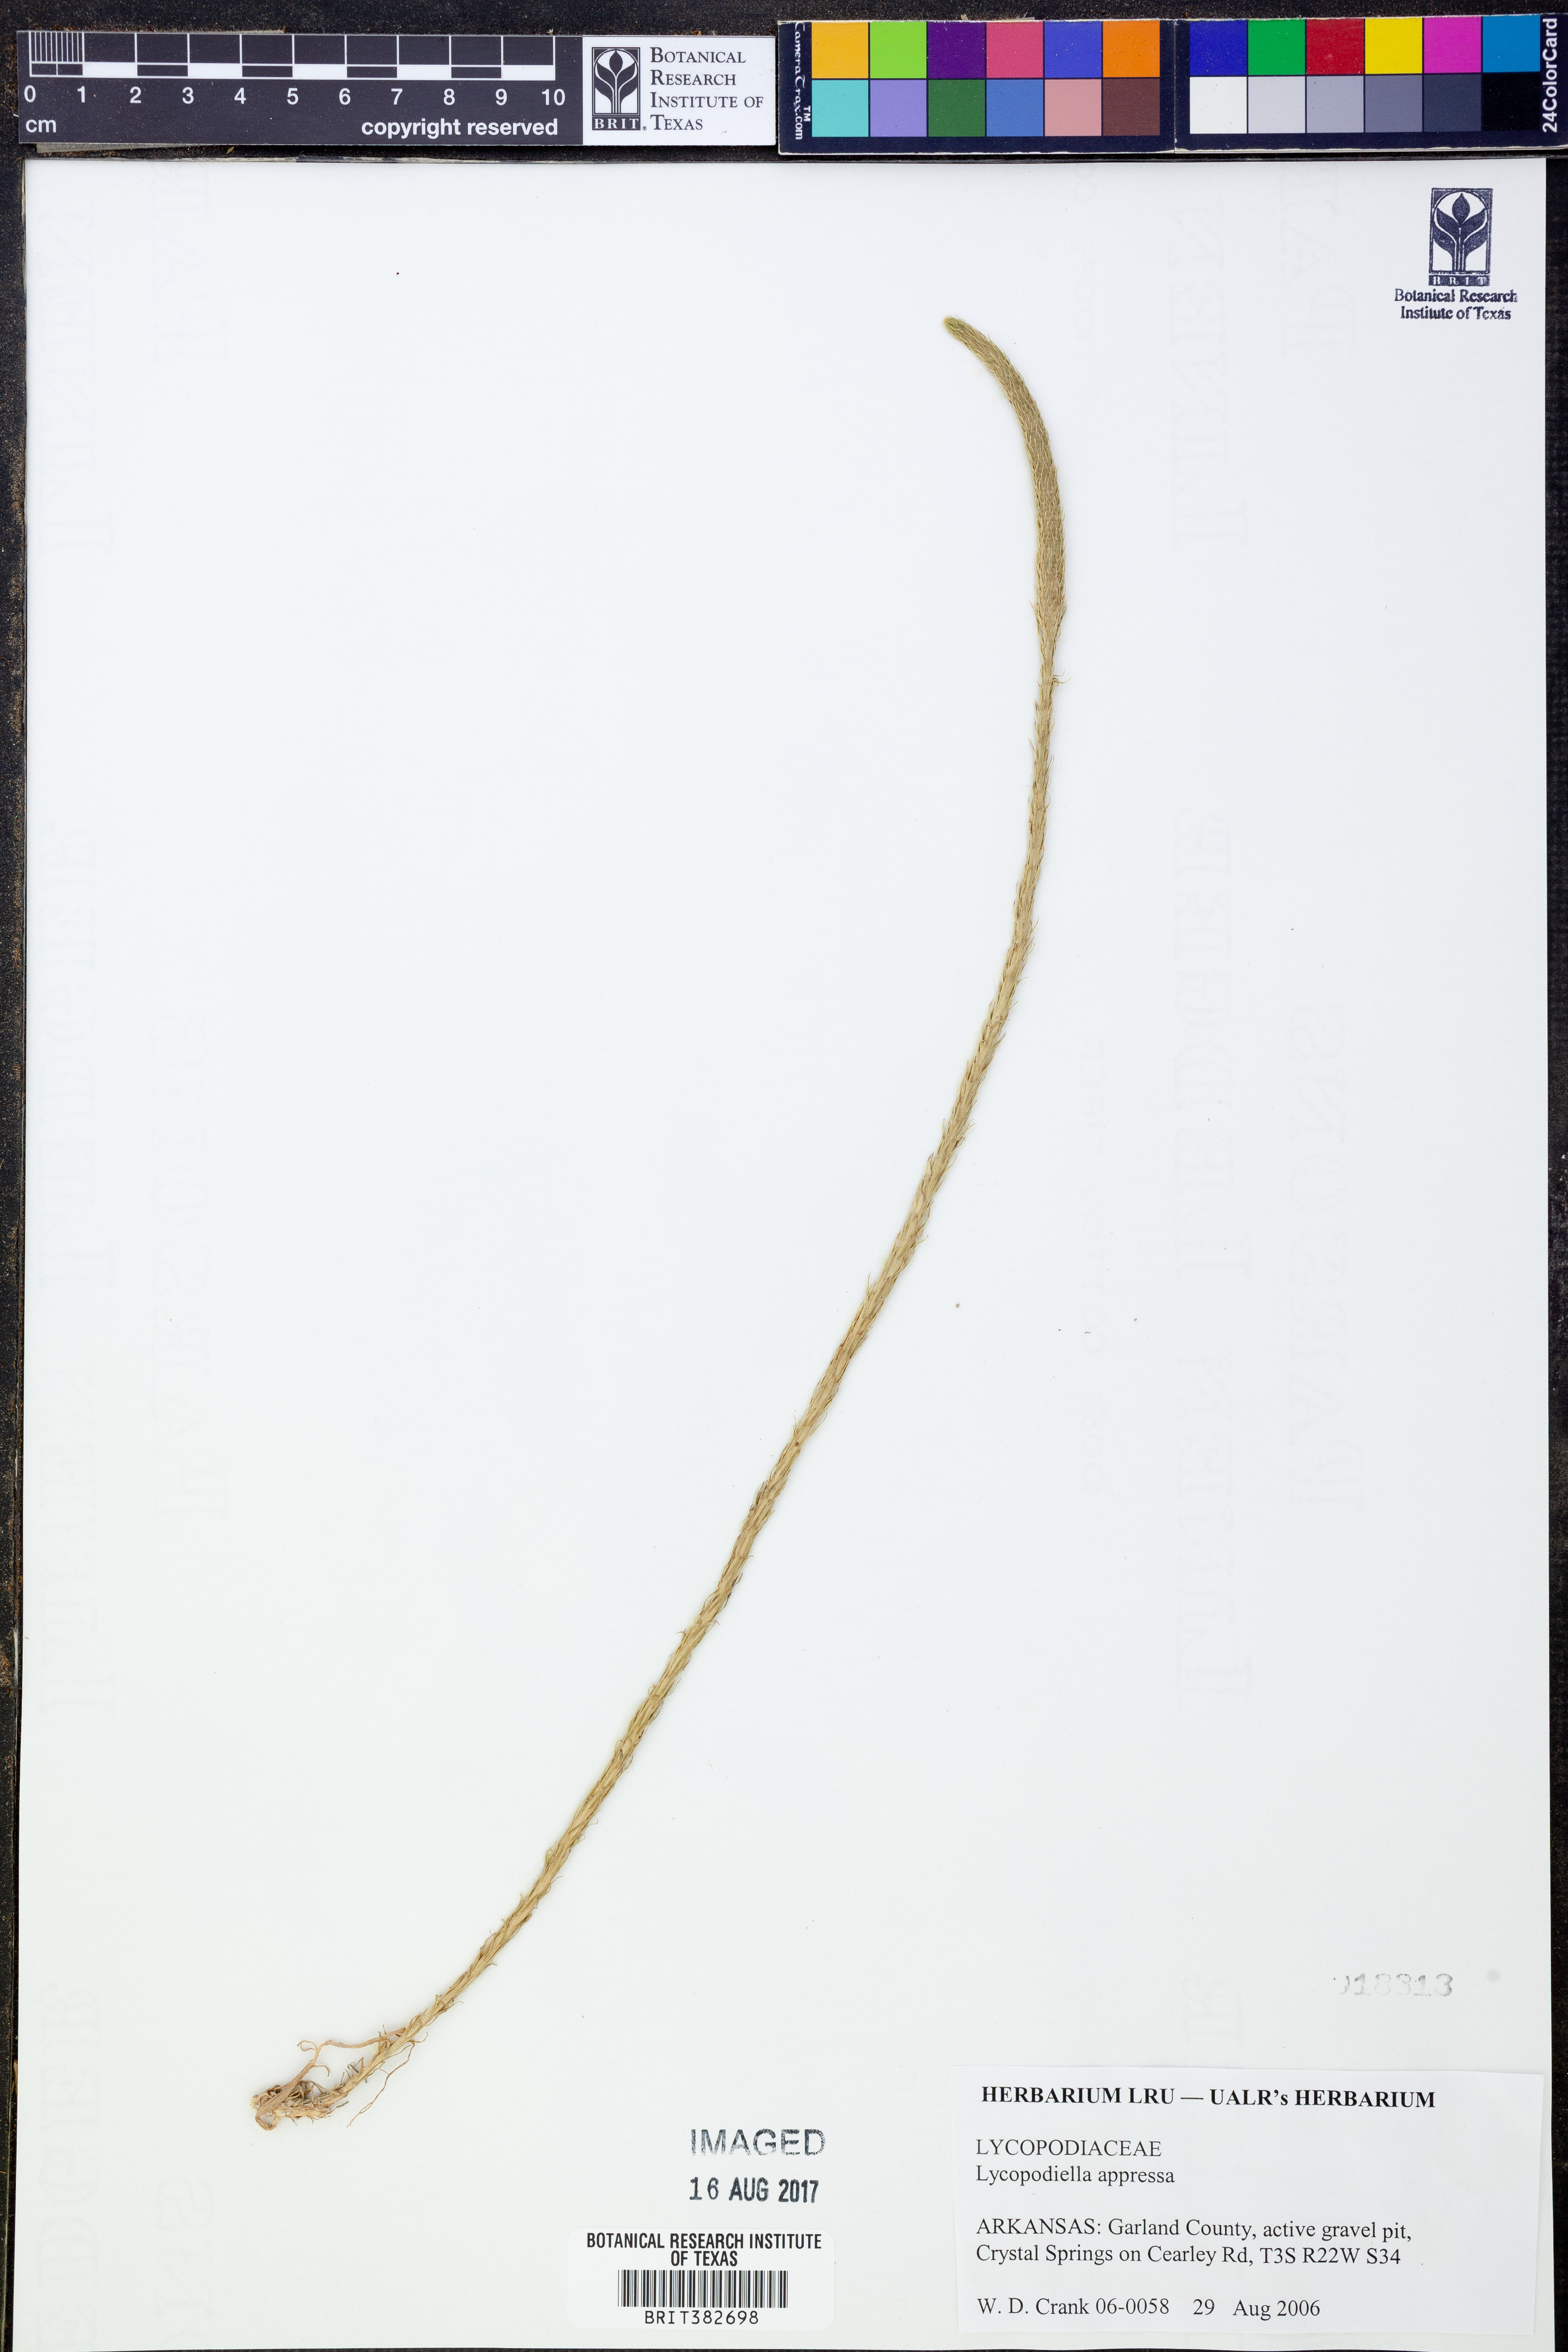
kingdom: Plantae
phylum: Tracheophyta
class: Lycopodiopsida
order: Lycopodiales
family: Lycopodiaceae
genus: Lycopodiella
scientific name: Lycopodiella appressa
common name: Appressed bog clubmoss
